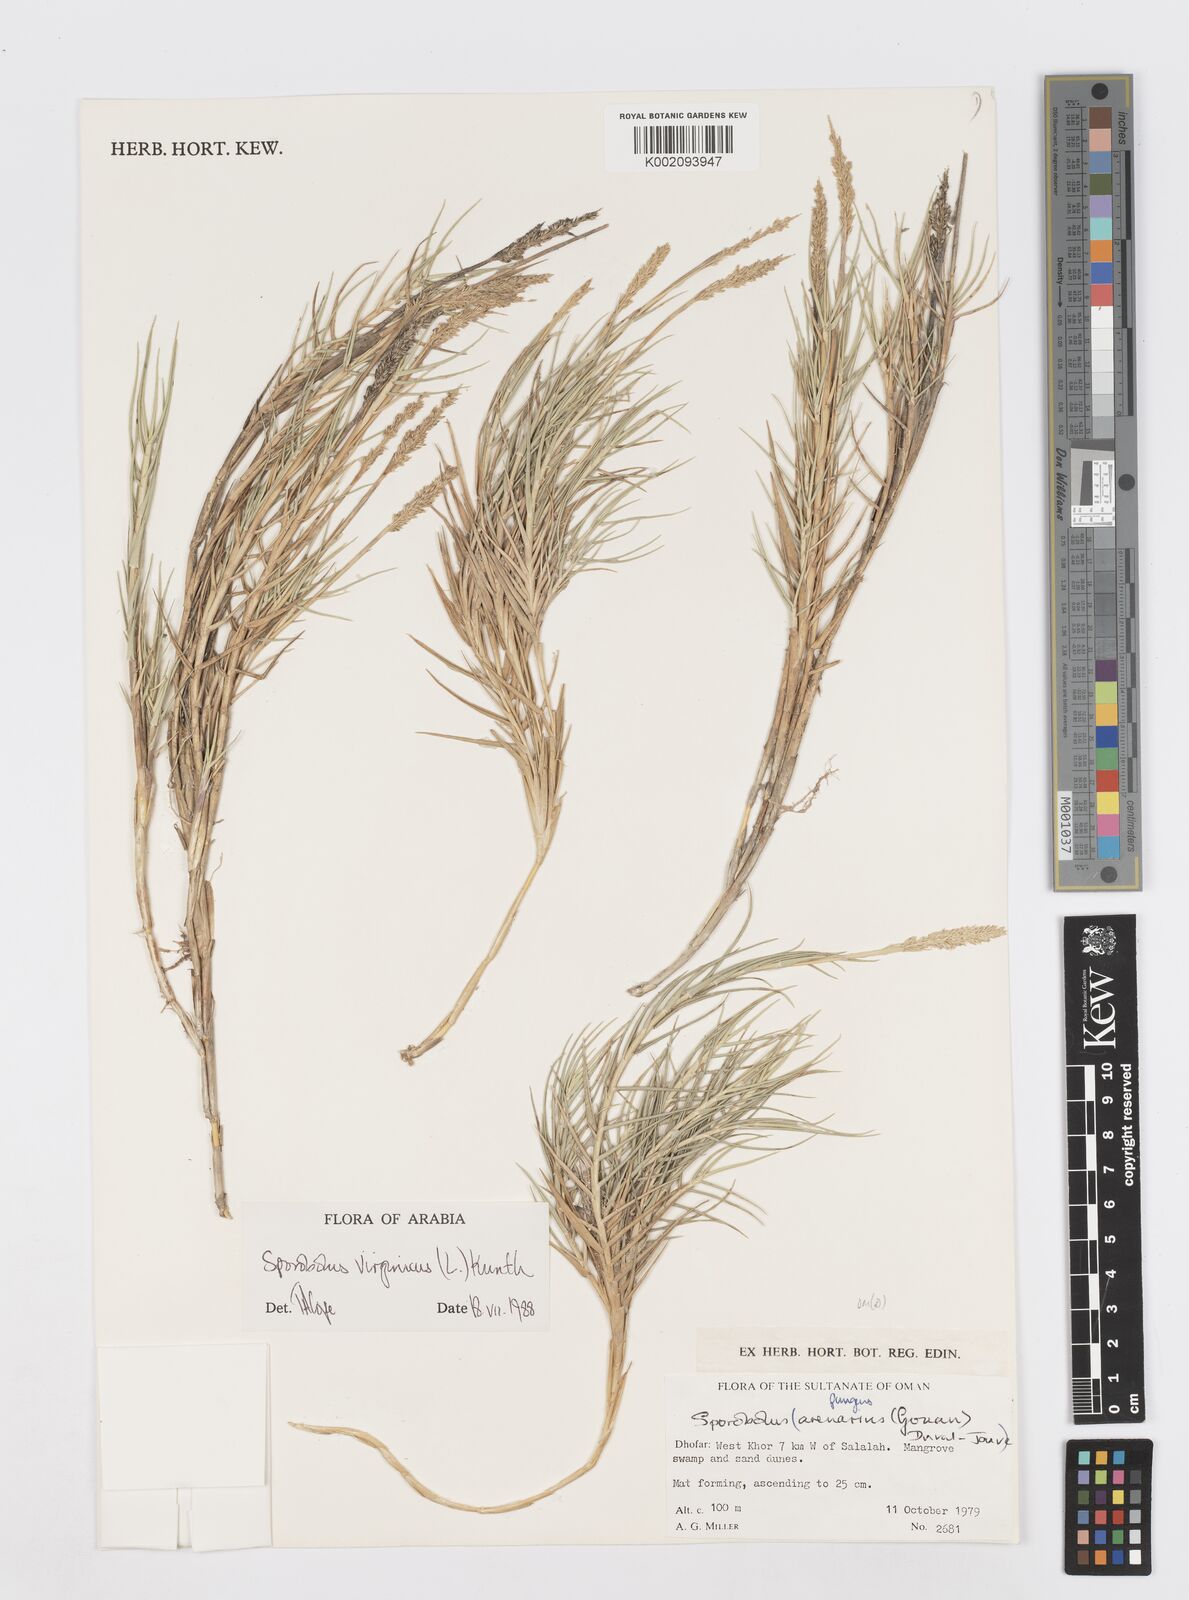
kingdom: Plantae
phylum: Tracheophyta
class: Liliopsida
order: Poales
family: Poaceae
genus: Sporobolus
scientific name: Sporobolus virginicus
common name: Beach dropseed
